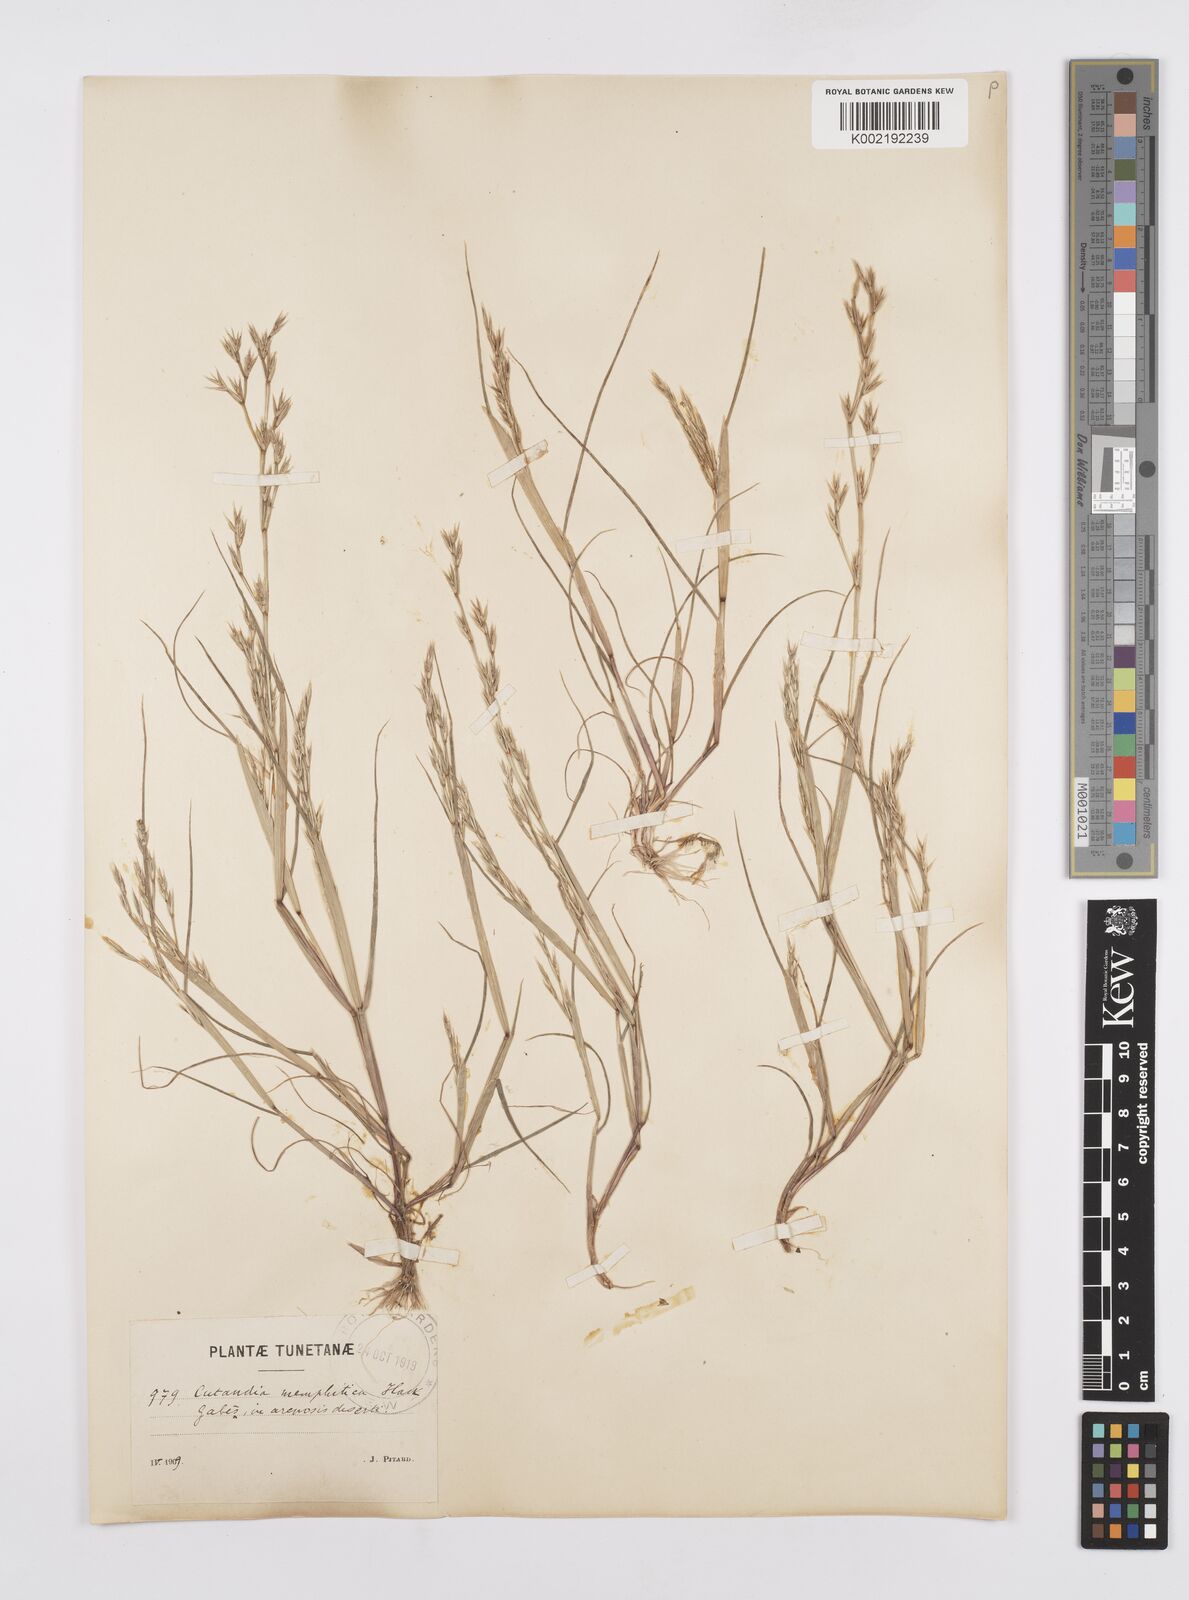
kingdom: Plantae
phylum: Tracheophyta
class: Liliopsida
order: Poales
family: Poaceae
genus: Cutandia
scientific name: Cutandia memphitica
